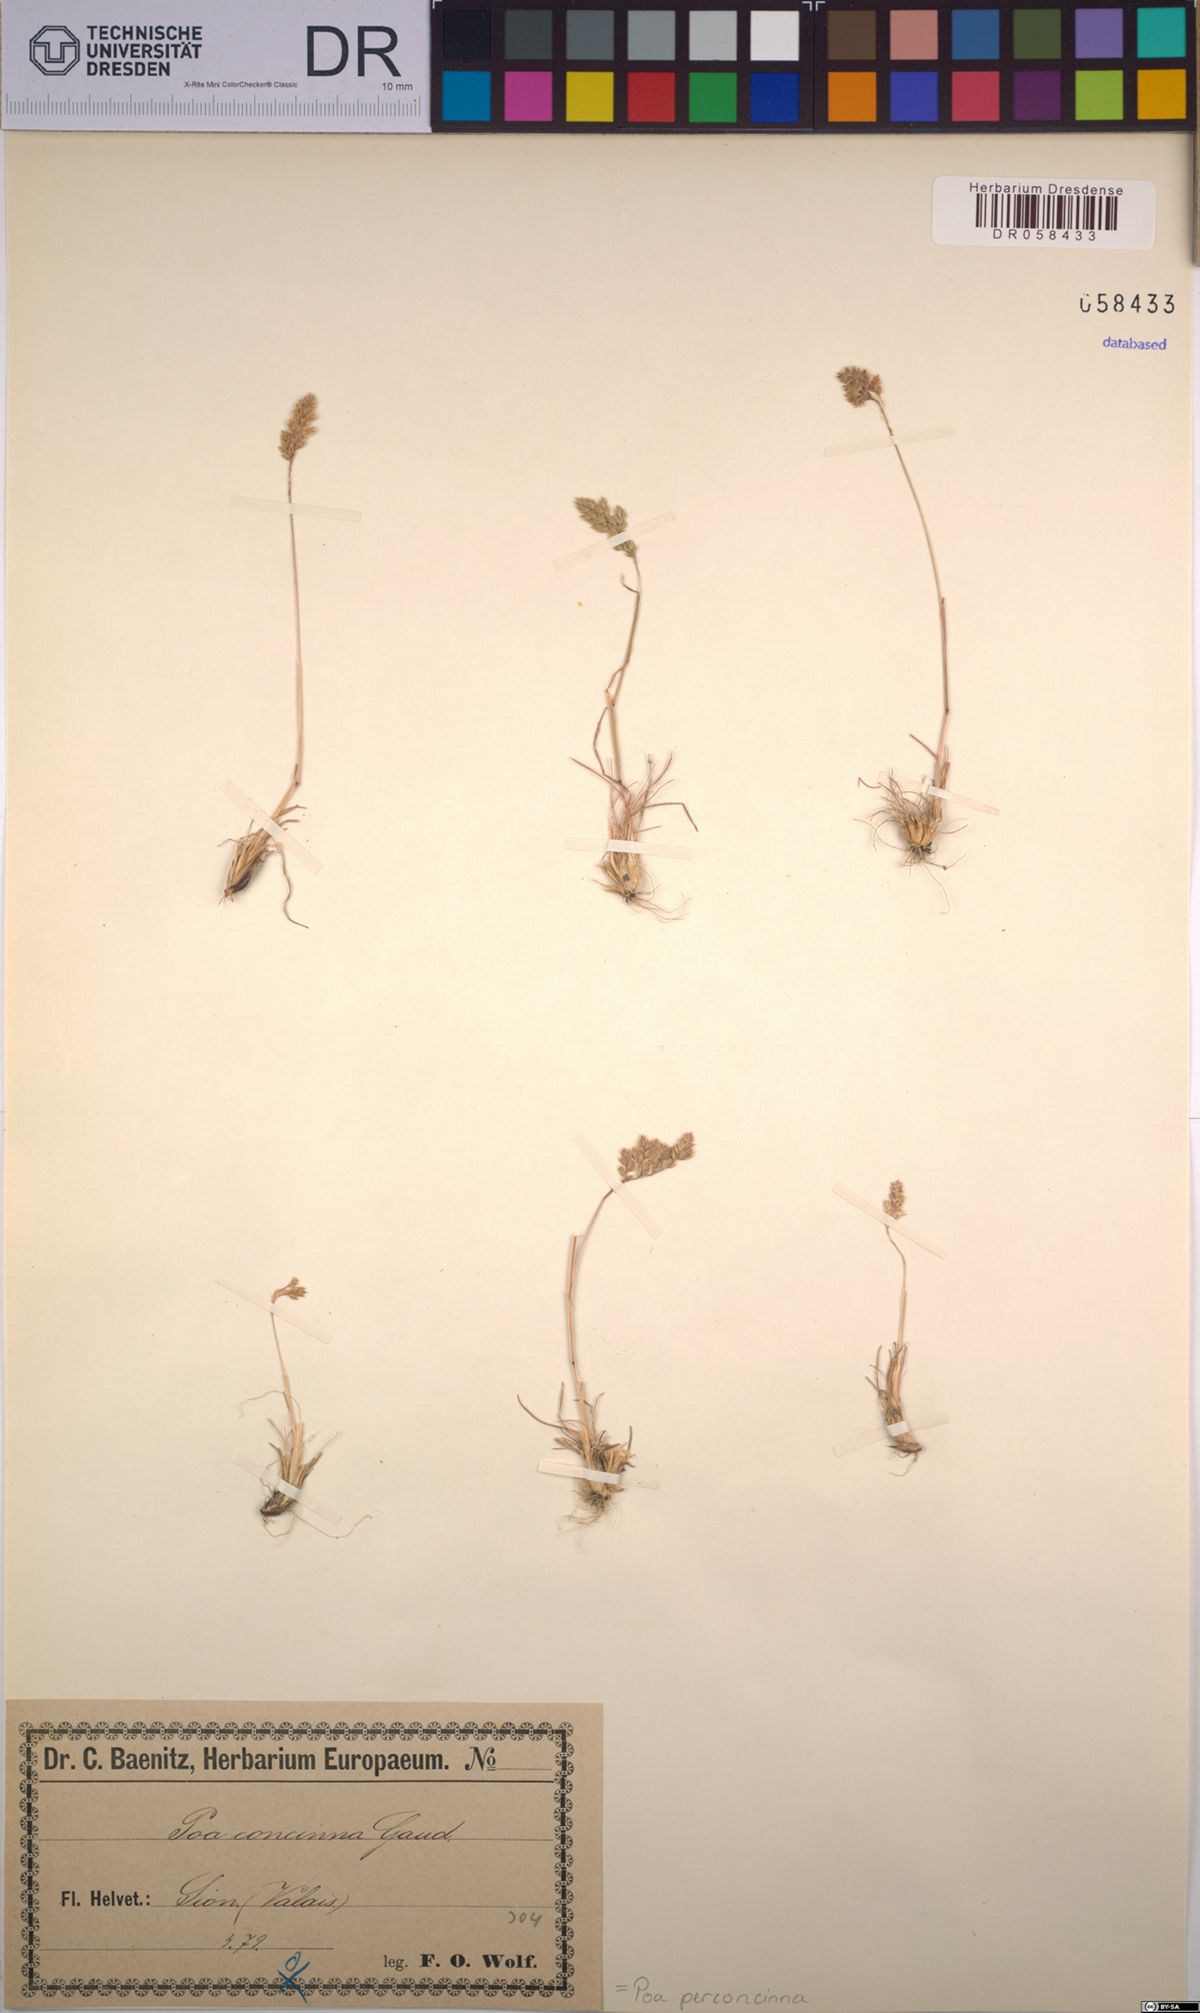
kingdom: Plantae
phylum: Tracheophyta
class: Liliopsida
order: Poales
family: Poaceae
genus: Poa
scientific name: Poa perconcinna
